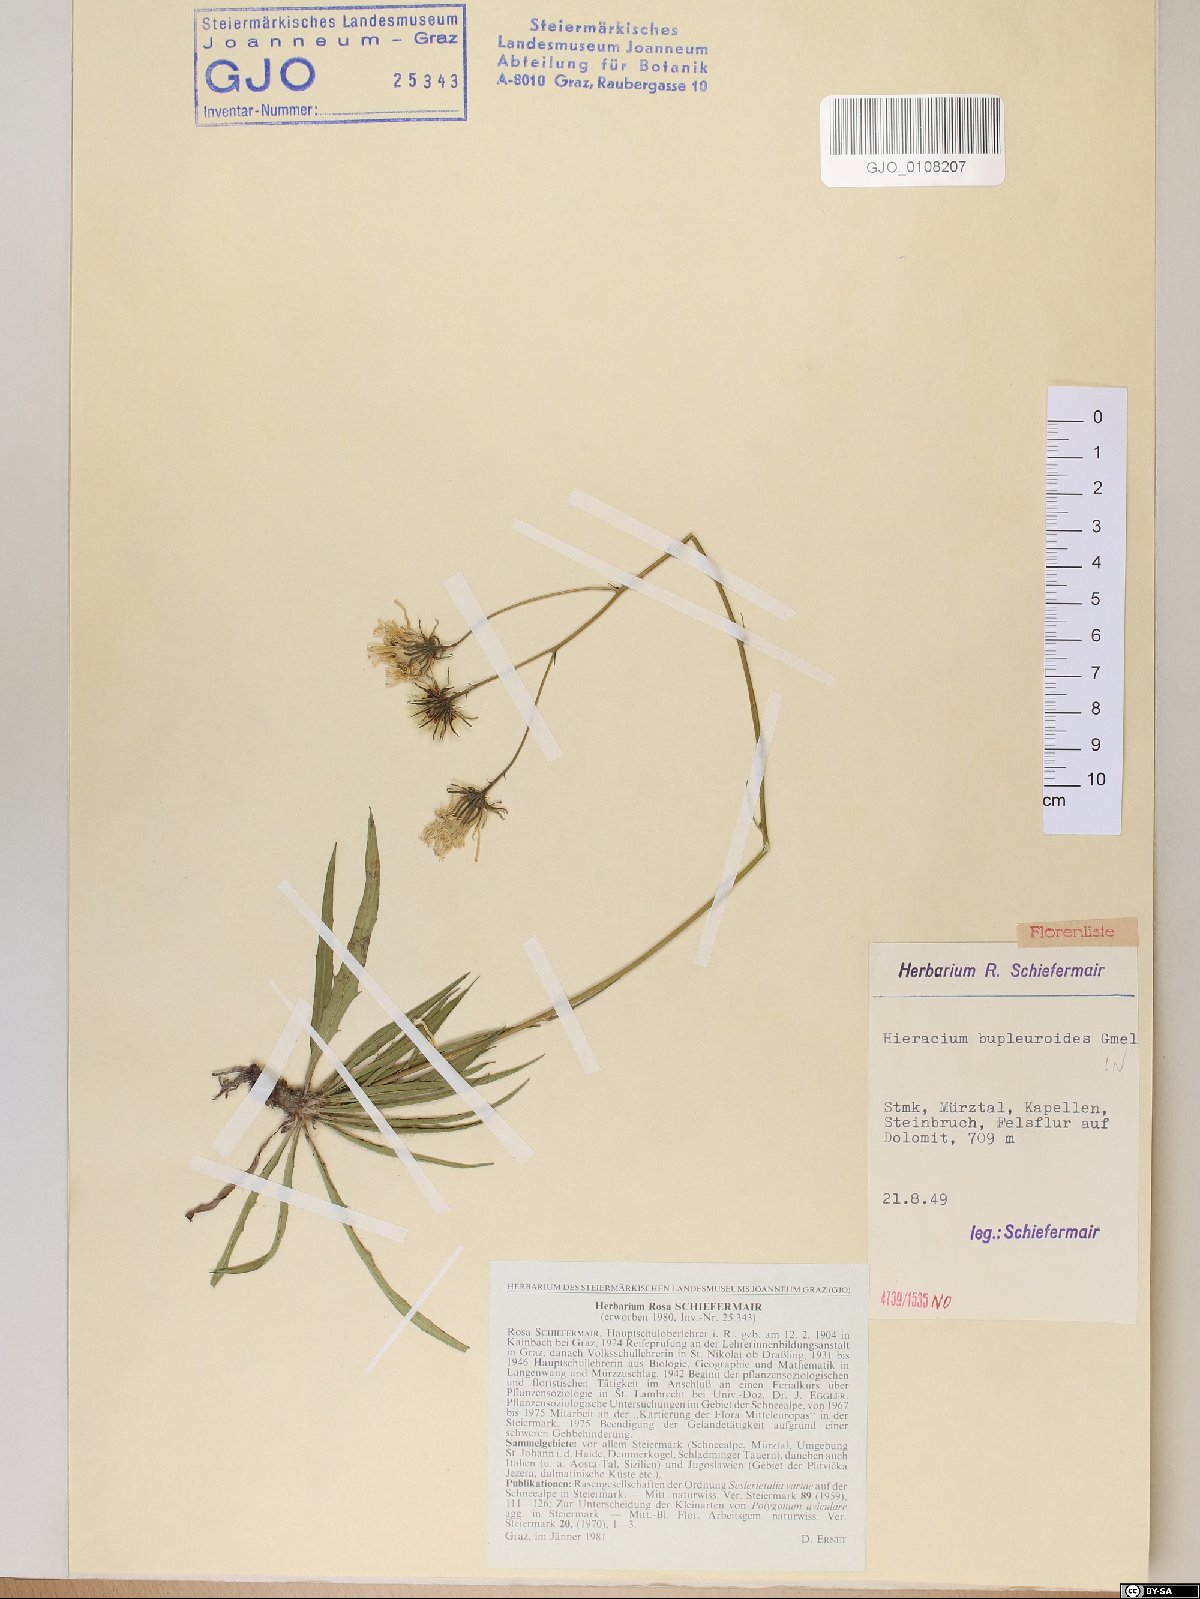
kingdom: Plantae
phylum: Tracheophyta
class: Magnoliopsida
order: Asterales
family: Asteraceae
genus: Hieracium
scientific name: Hieracium bupleuroides
